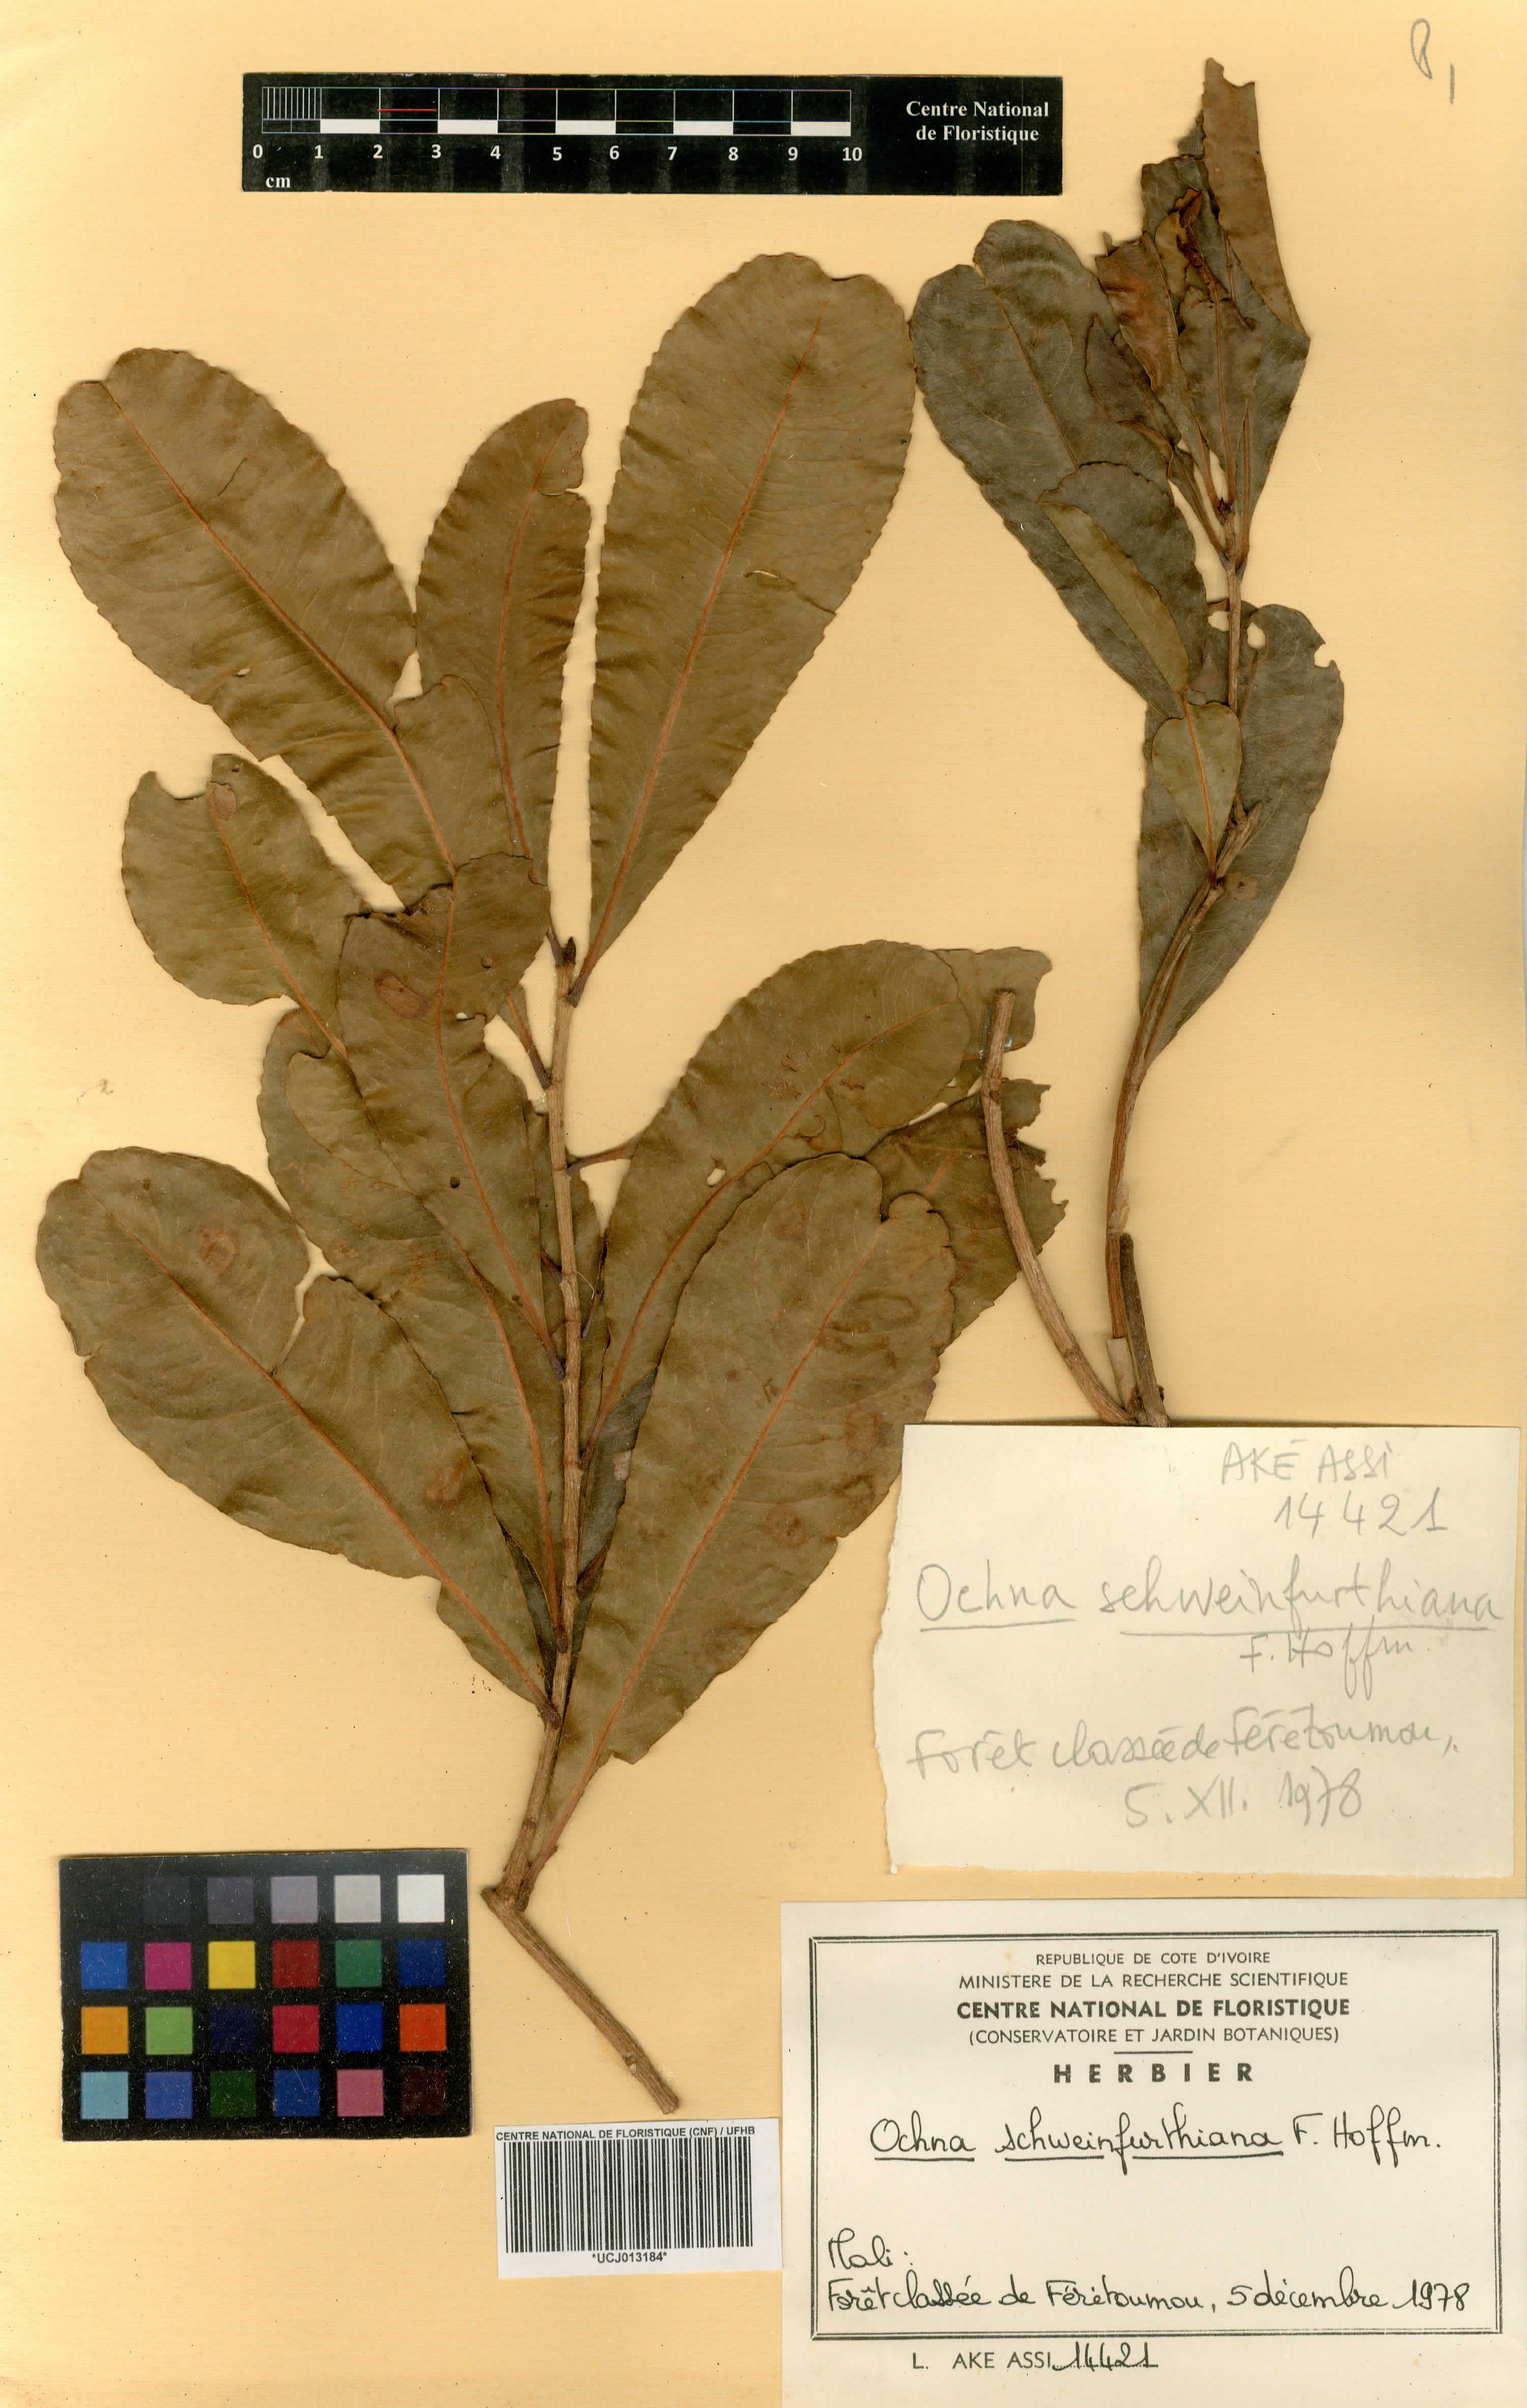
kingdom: Plantae
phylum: Tracheophyta
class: Magnoliopsida
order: Malpighiales
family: Ochnaceae
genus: Ochna
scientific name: Ochna schweinfurthiana
